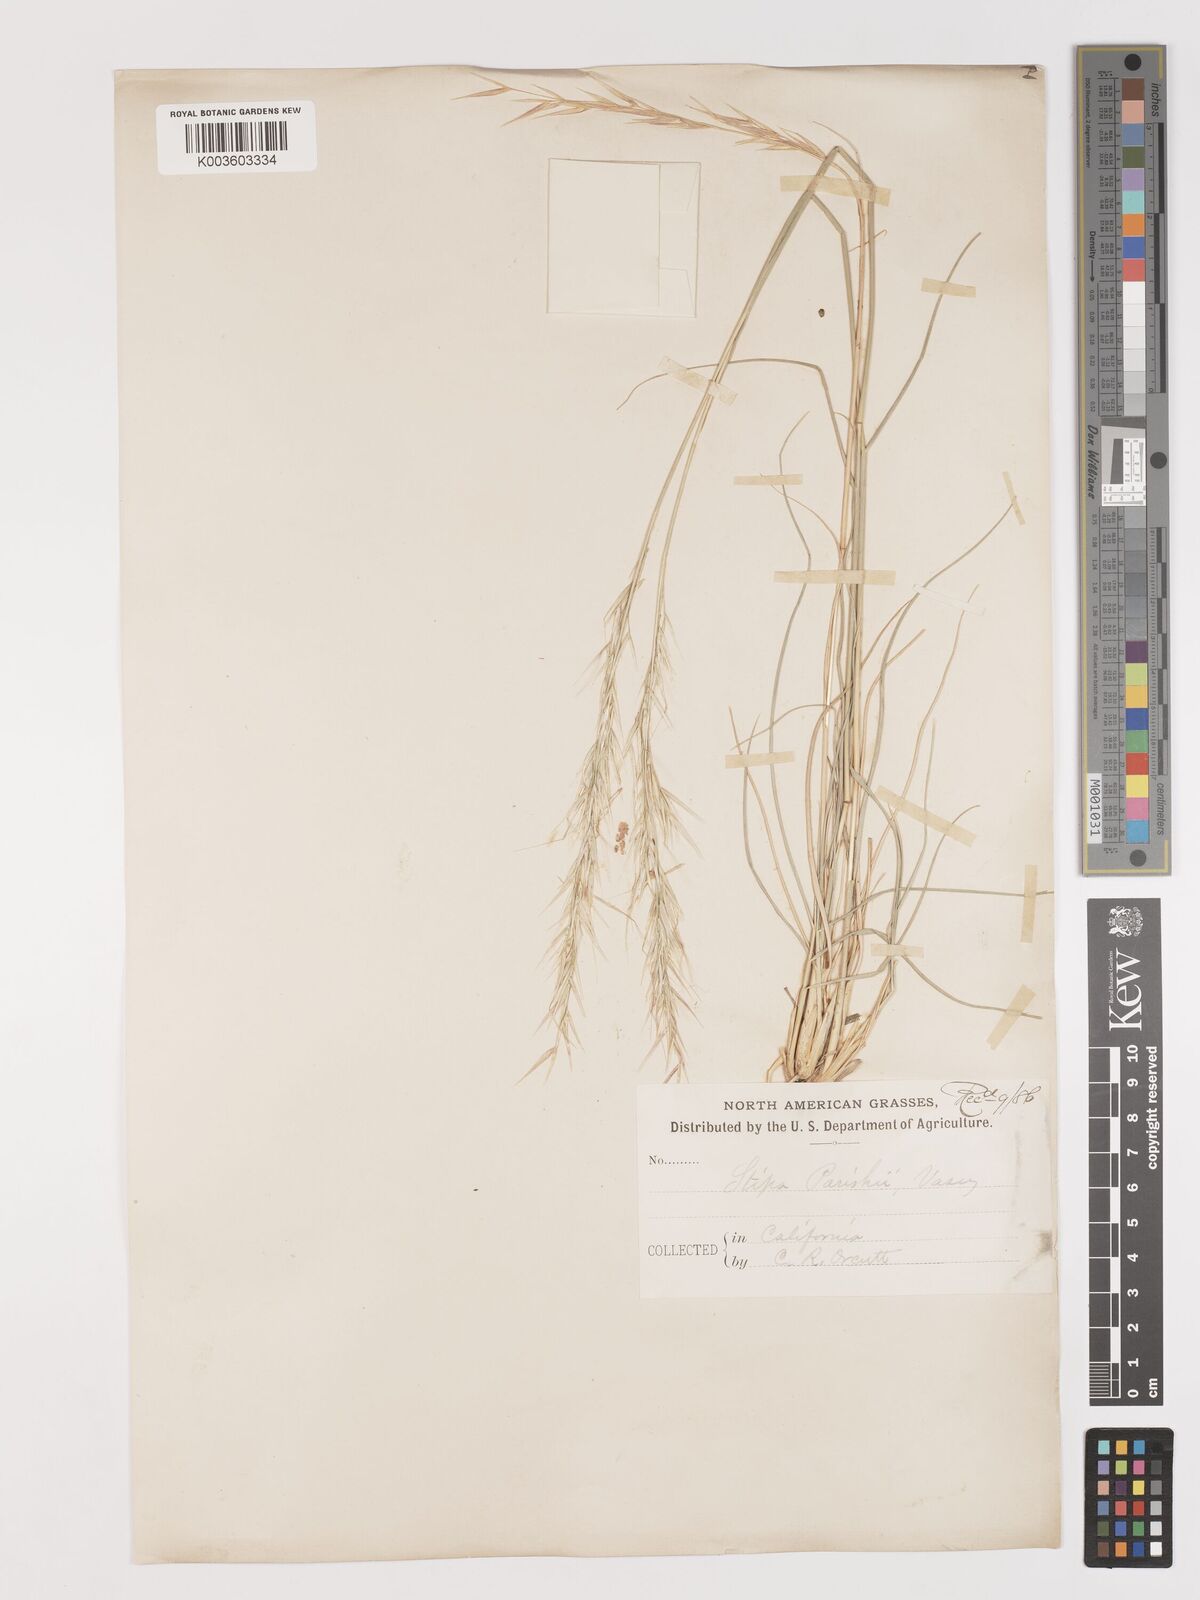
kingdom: Plantae
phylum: Tracheophyta
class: Liliopsida
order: Poales
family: Poaceae
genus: Hesperostipa
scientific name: Hesperostipa comata
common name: Needle-and-thread grass
